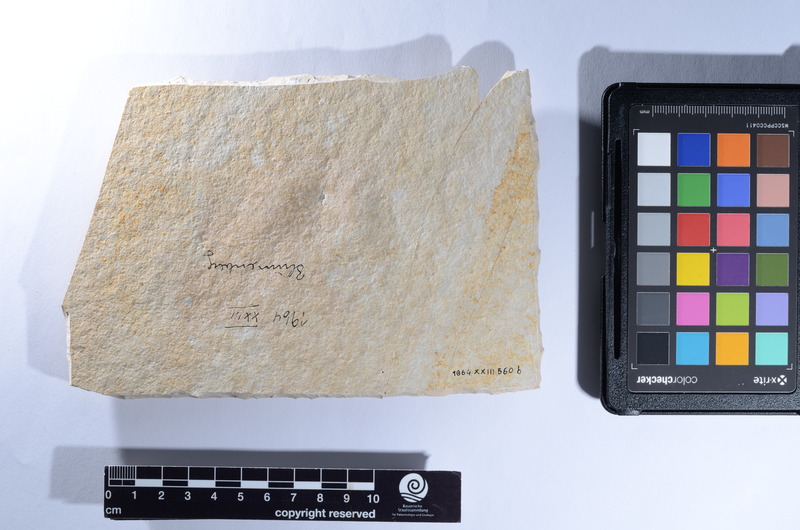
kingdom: Animalia
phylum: Chordata
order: Amiiformes
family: Caturidae
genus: Caturus
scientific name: Caturus
